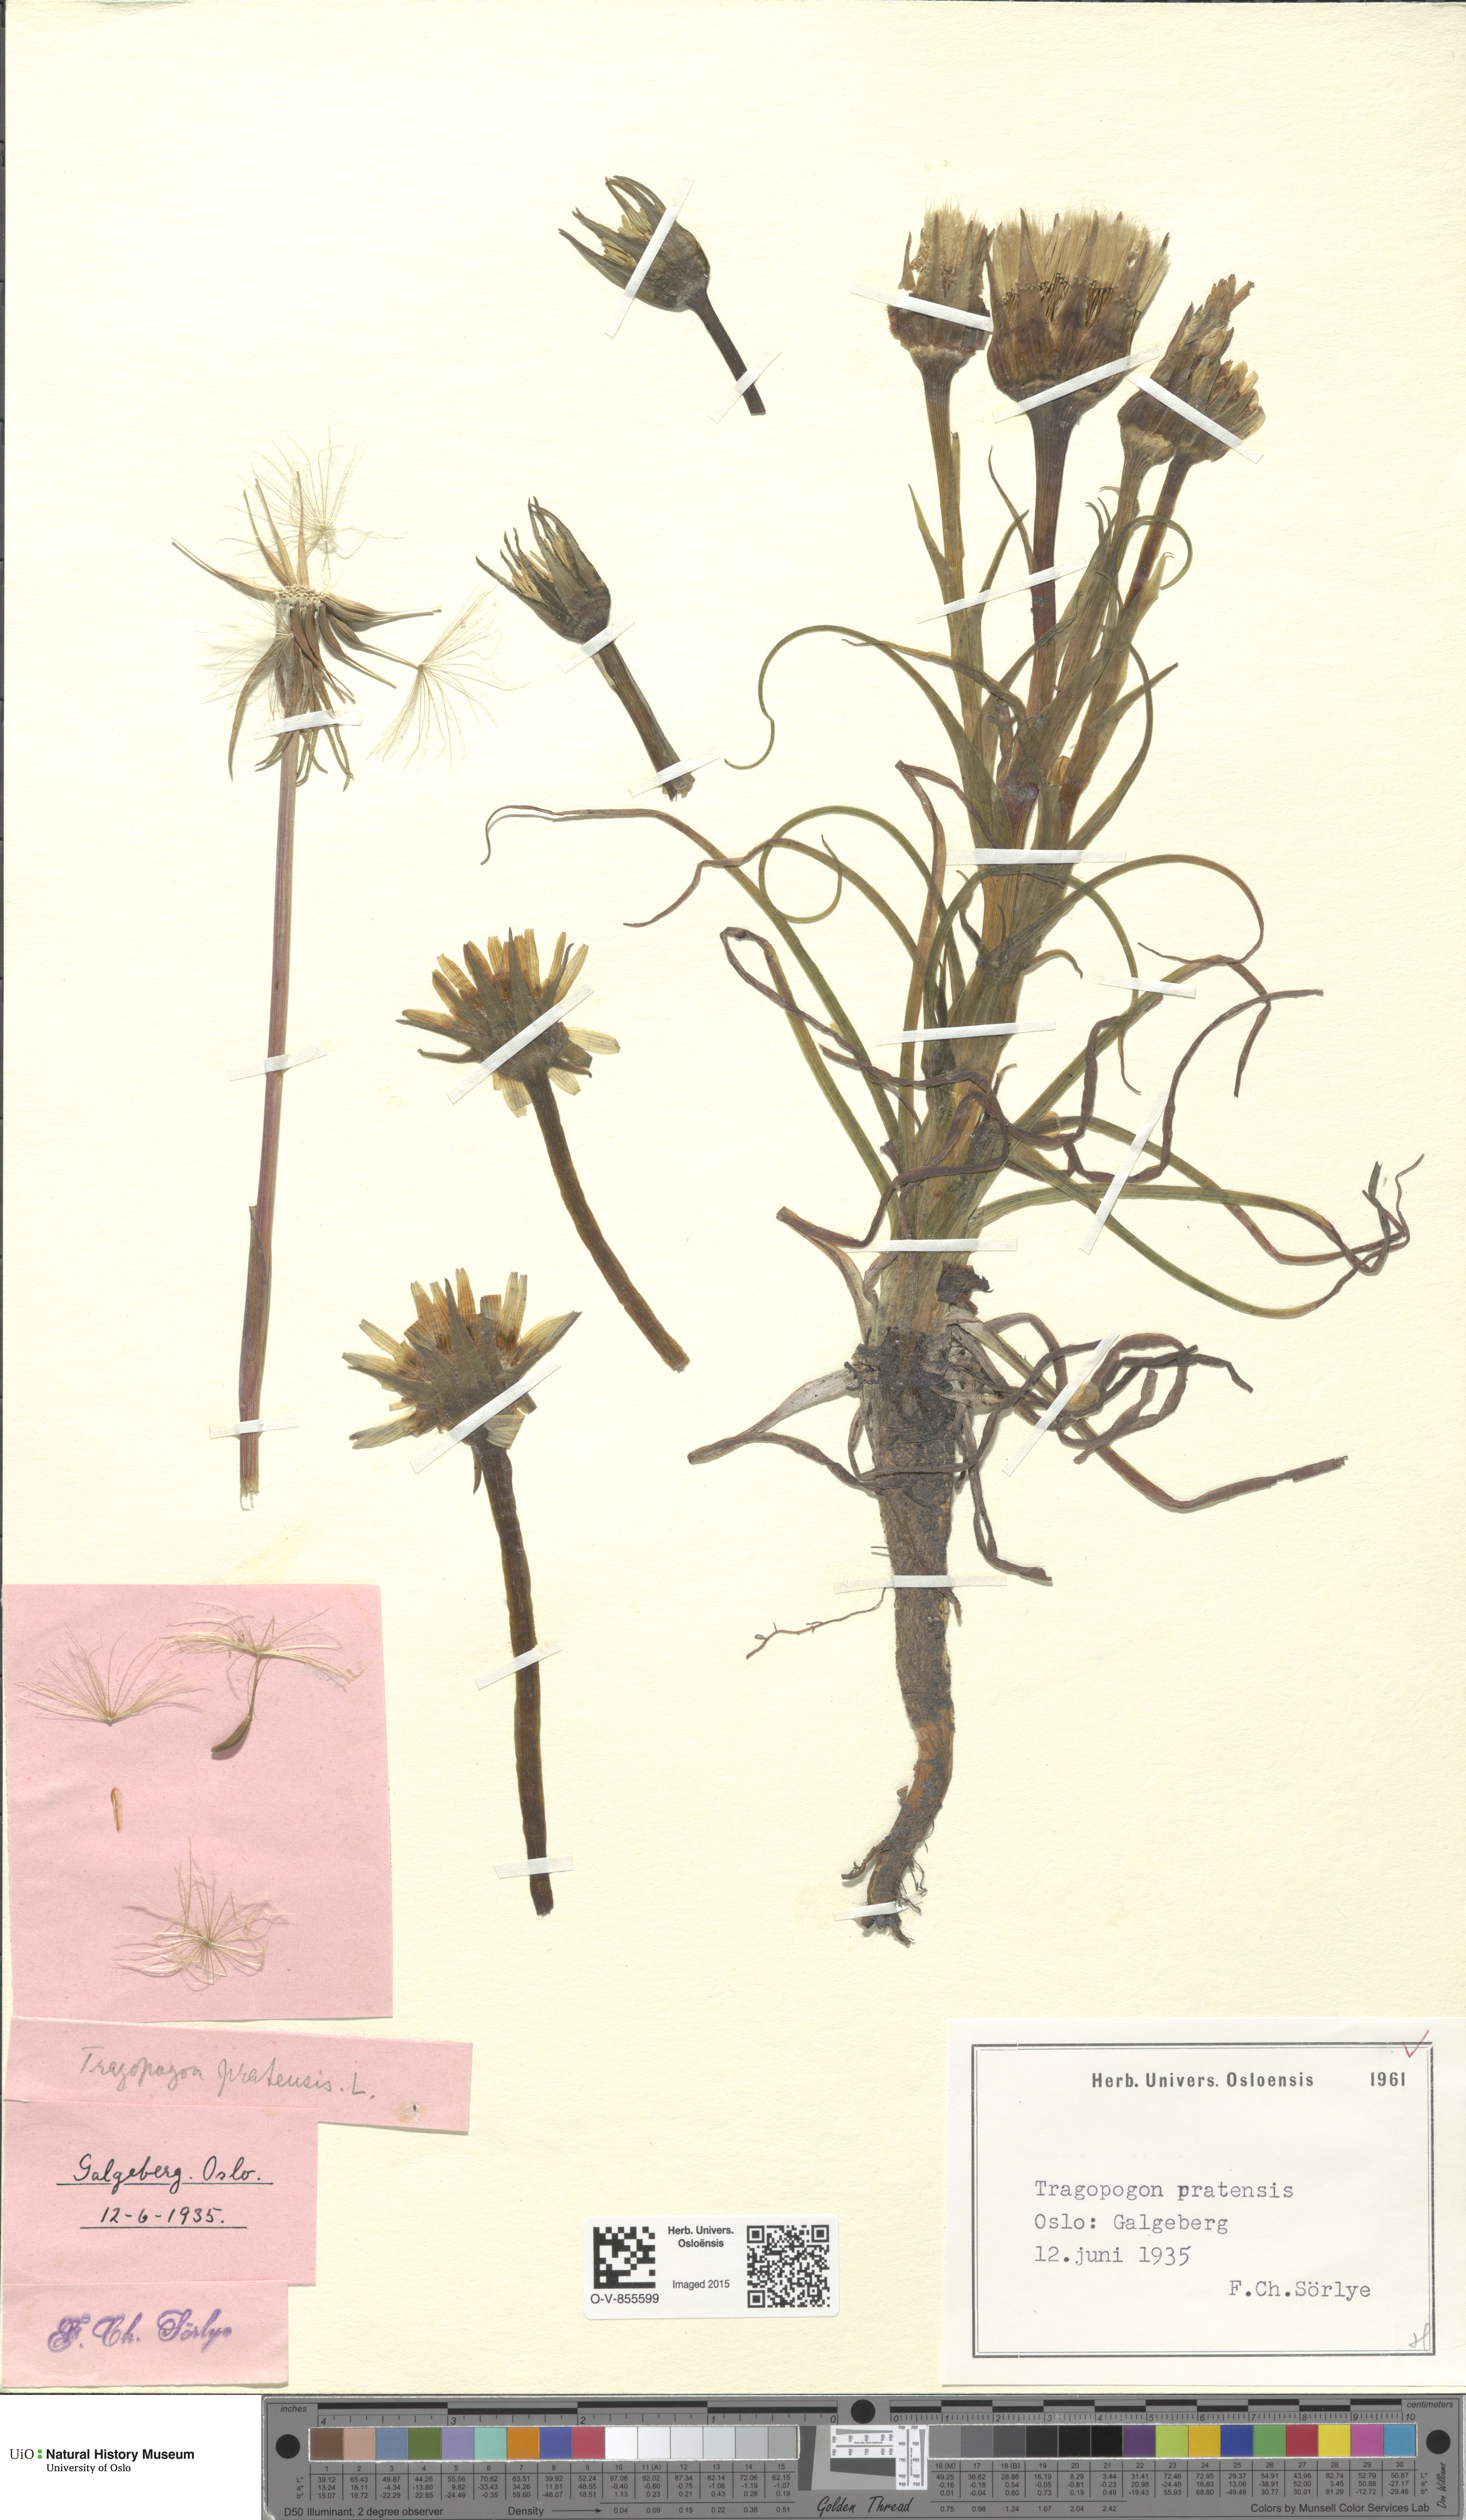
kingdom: Plantae
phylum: Tracheophyta
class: Magnoliopsida
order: Asterales
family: Asteraceae
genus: Tragopogon
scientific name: Tragopogon pratensis
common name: Goat's-beard
